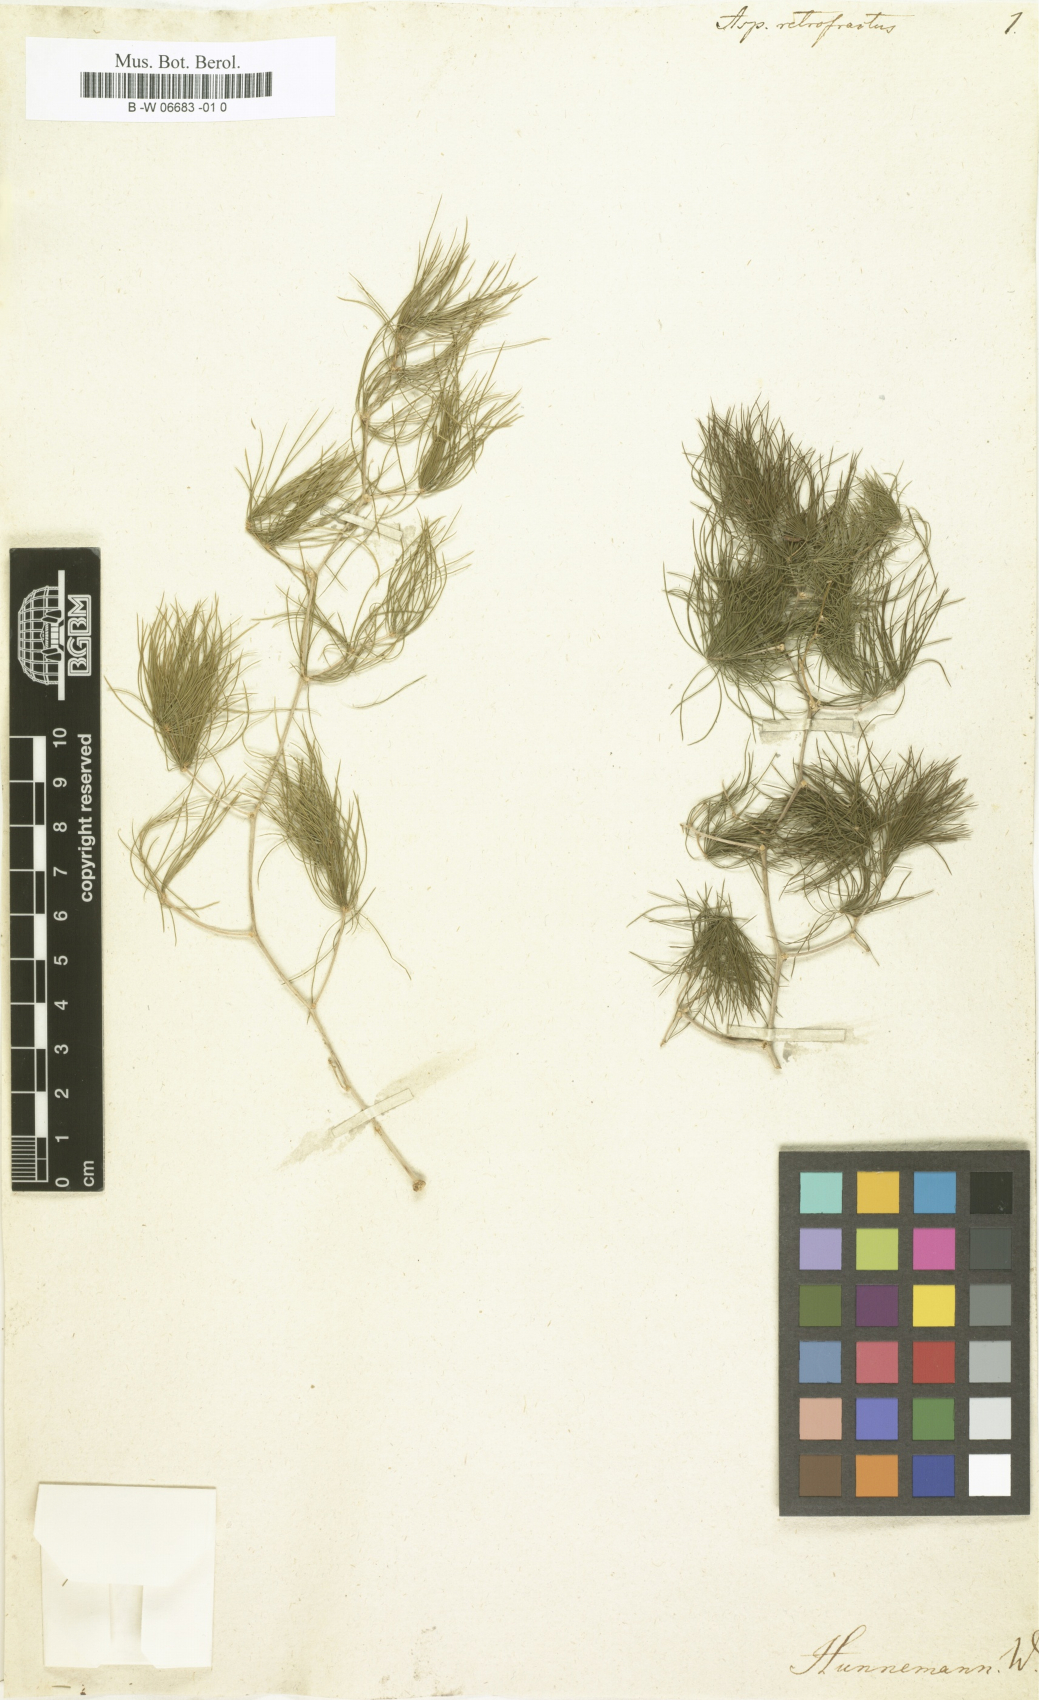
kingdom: Plantae
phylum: Tracheophyta
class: Liliopsida
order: Asparagales
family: Asparagaceae
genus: Asparagus
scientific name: Asparagus retrofractus
